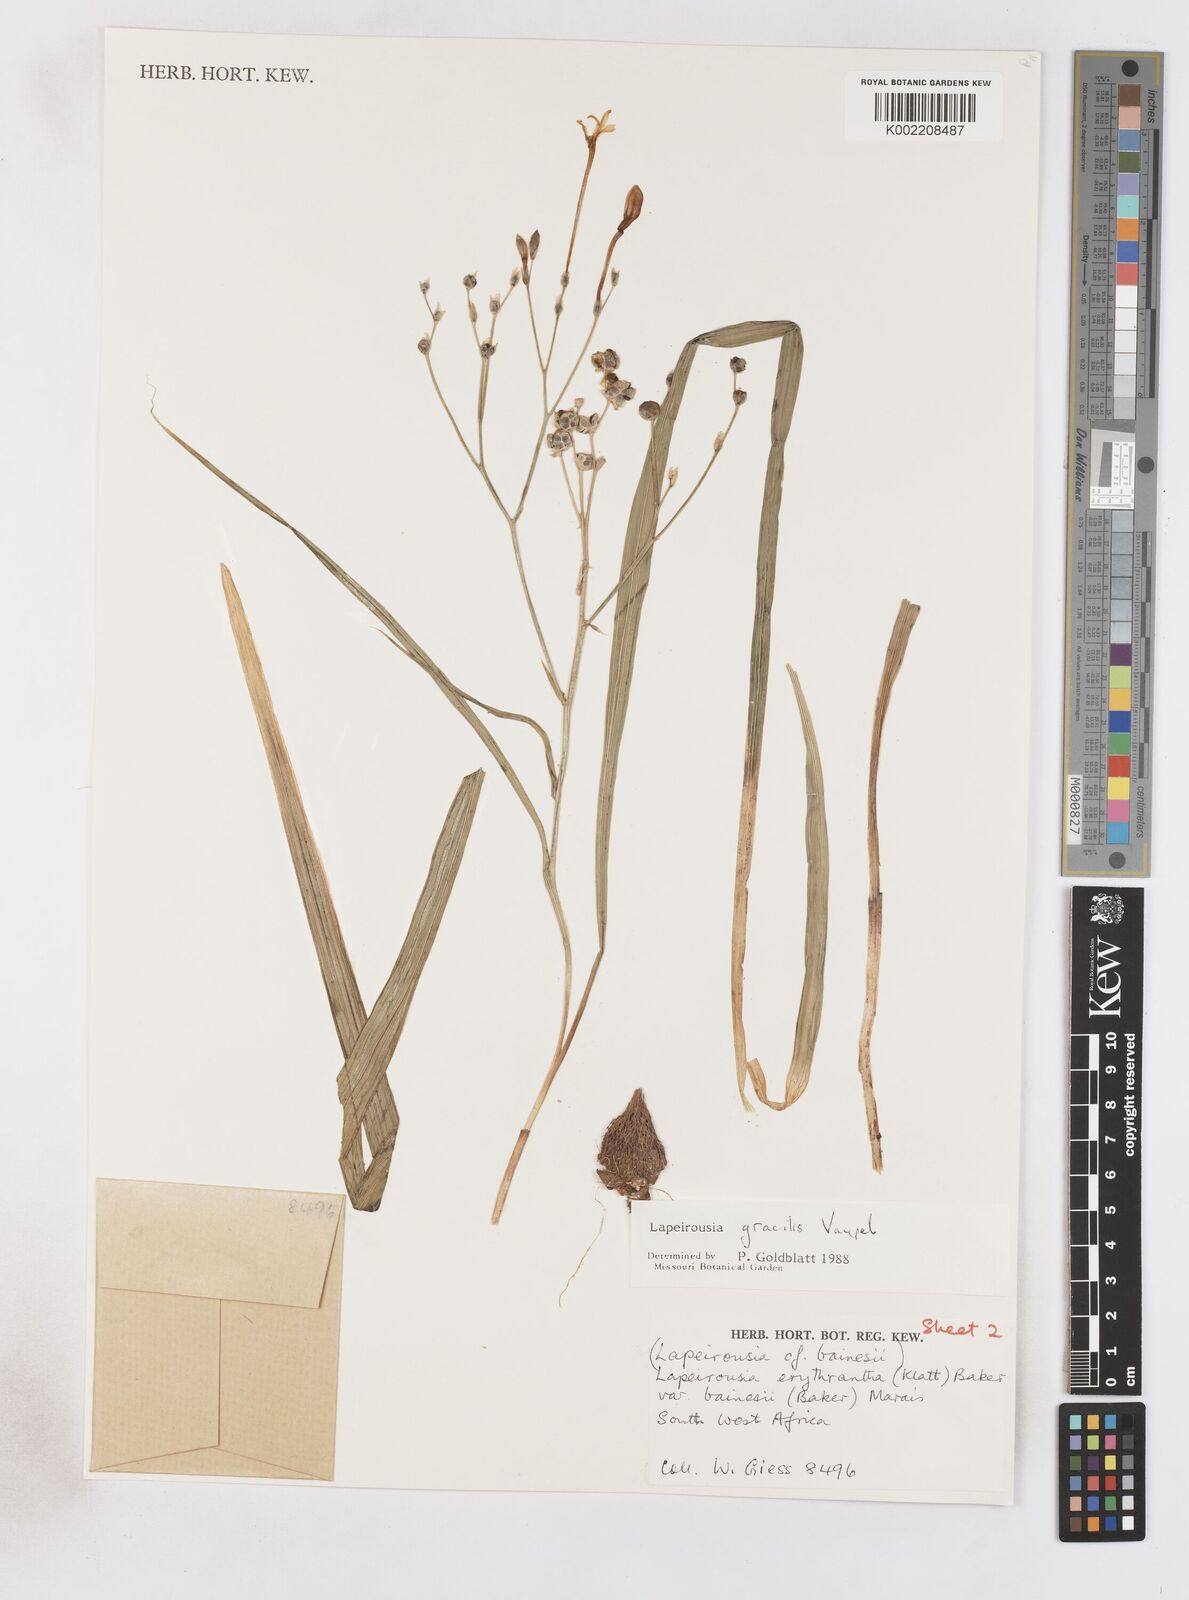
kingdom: Plantae
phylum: Tracheophyta
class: Liliopsida
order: Asparagales
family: Iridaceae
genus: Afrosolen
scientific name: Afrosolen gracilis
